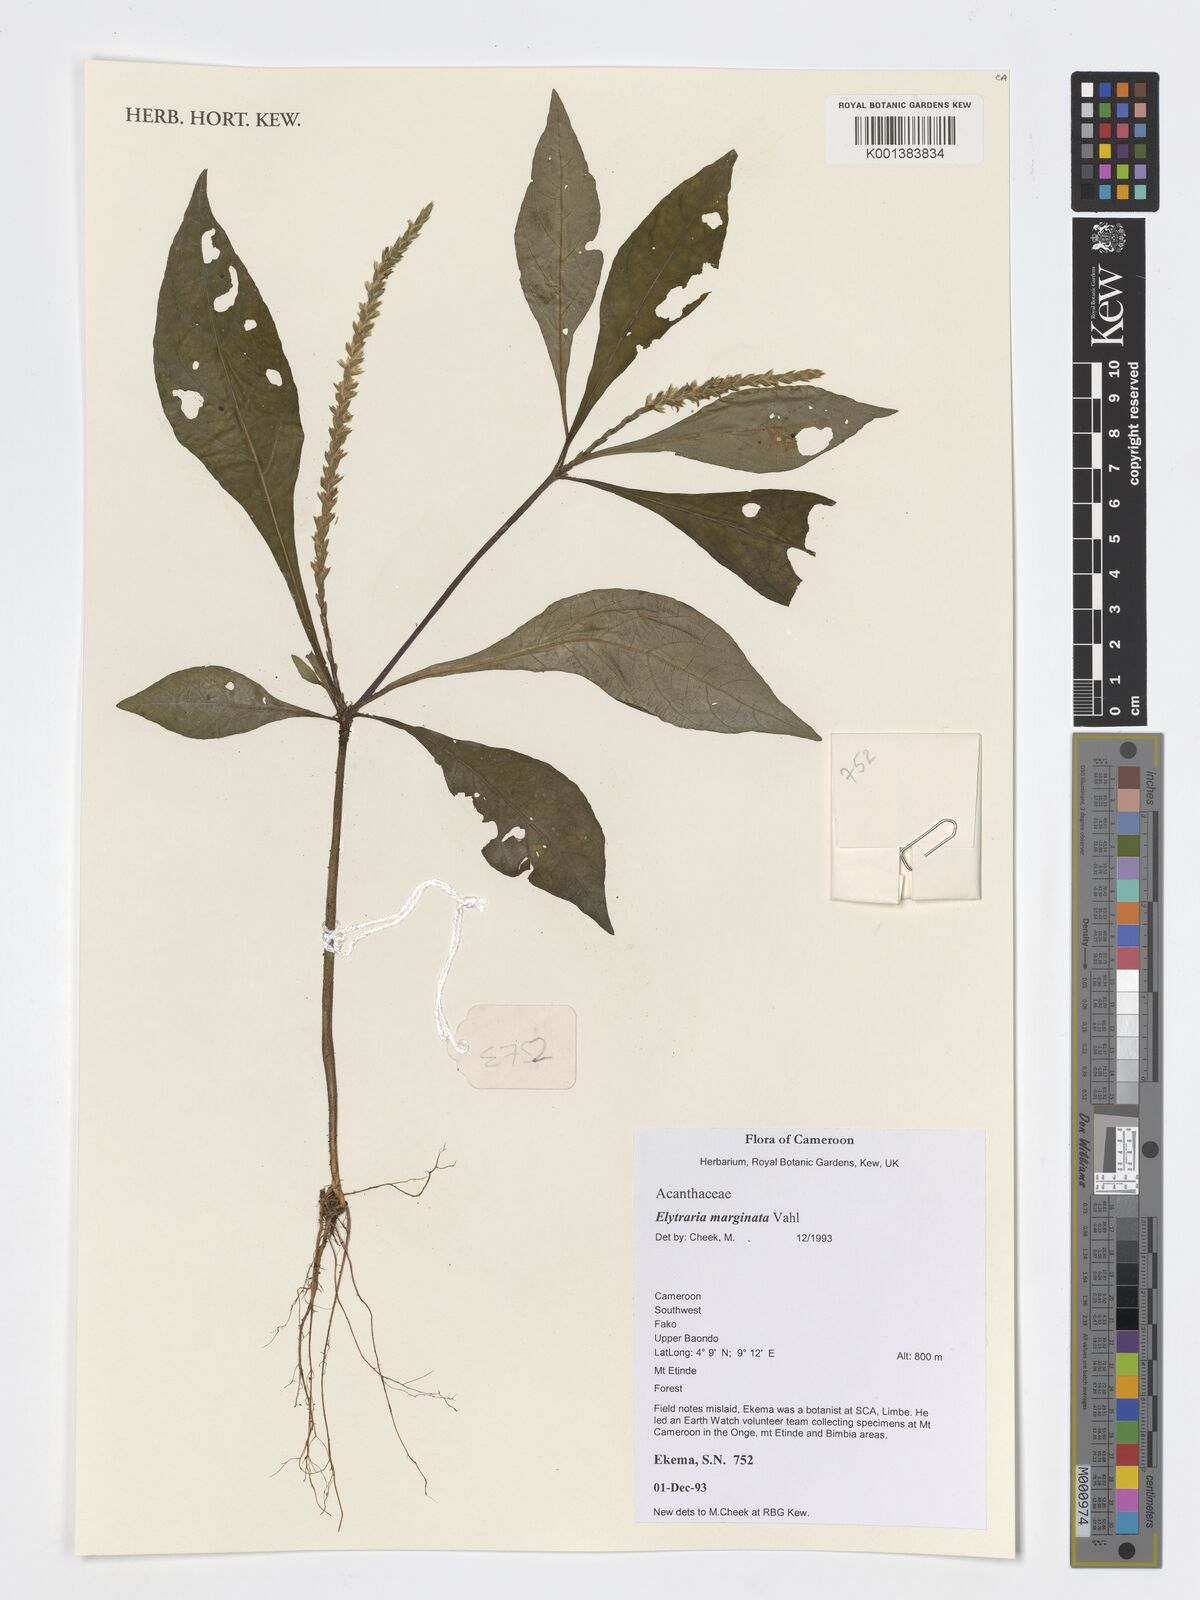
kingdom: Plantae
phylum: Tracheophyta
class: Magnoliopsida
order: Lamiales
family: Acanthaceae
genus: Elytraria
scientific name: Elytraria marginata
